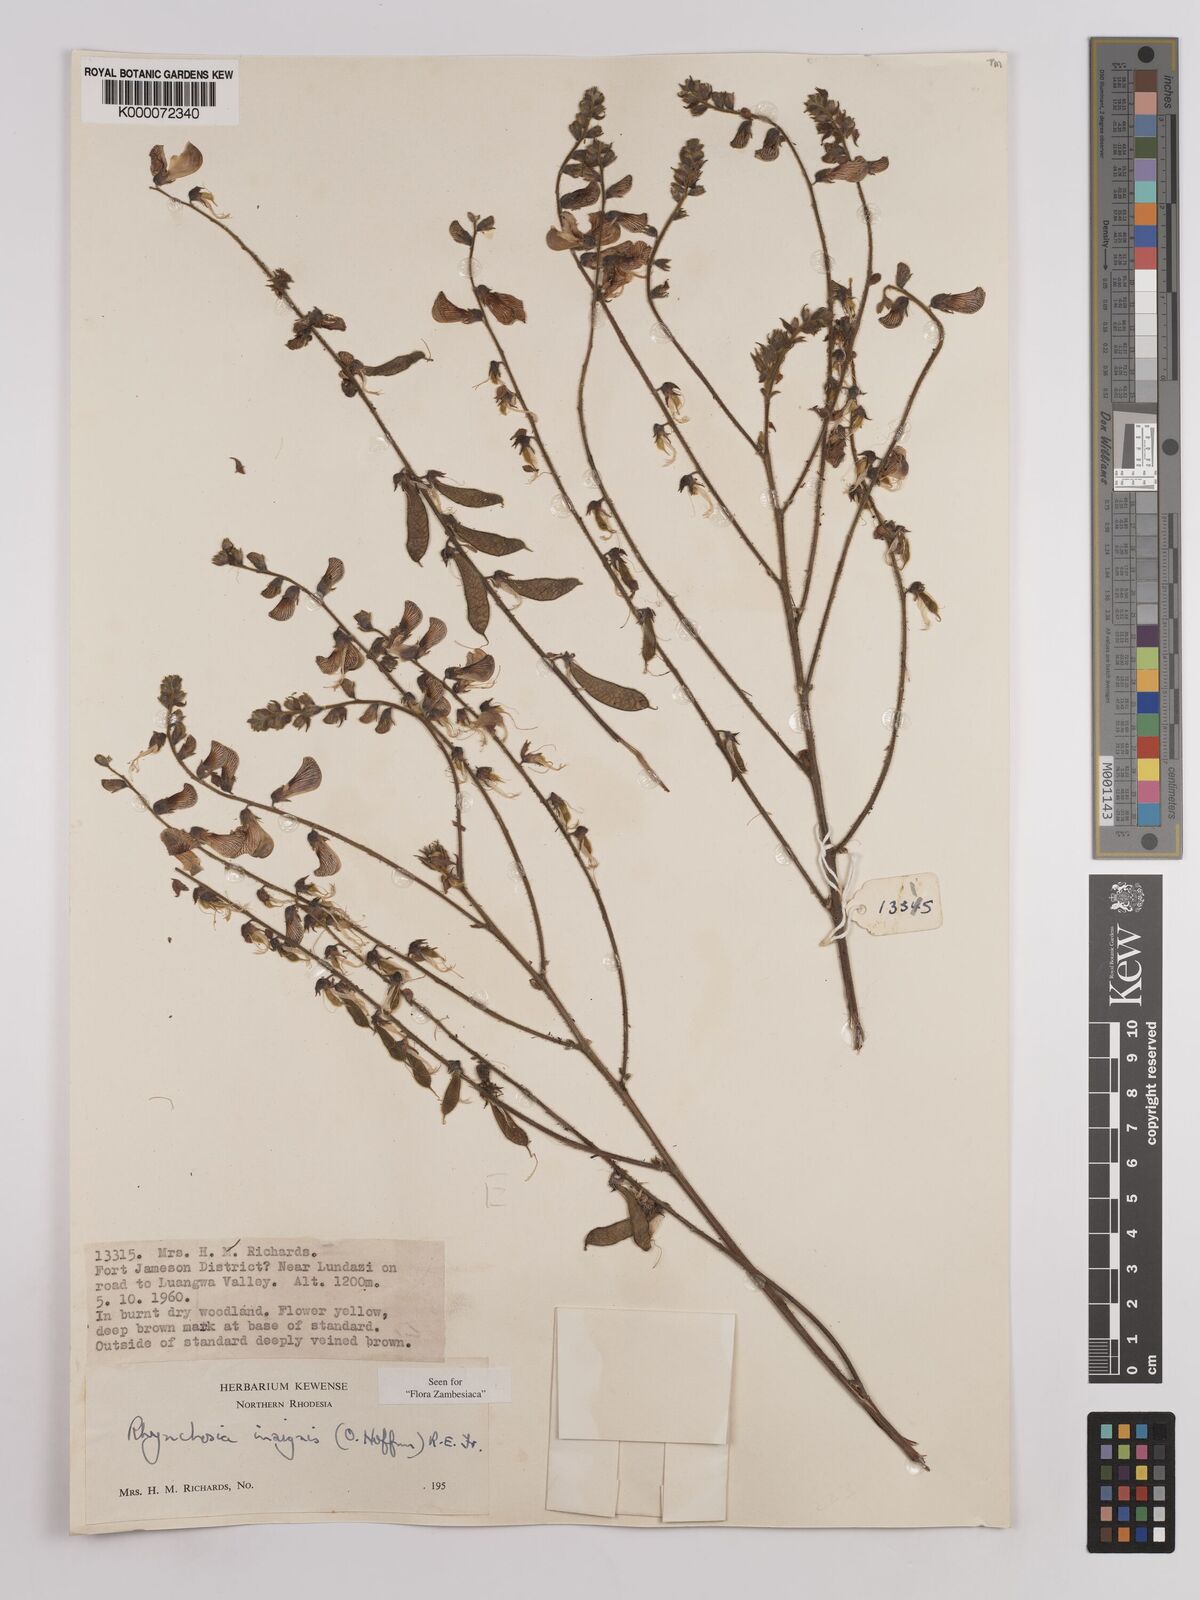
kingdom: Plantae
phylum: Tracheophyta
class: Magnoliopsida
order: Fabales
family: Fabaceae
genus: Rhynchosia
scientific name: Rhynchosia insignis
